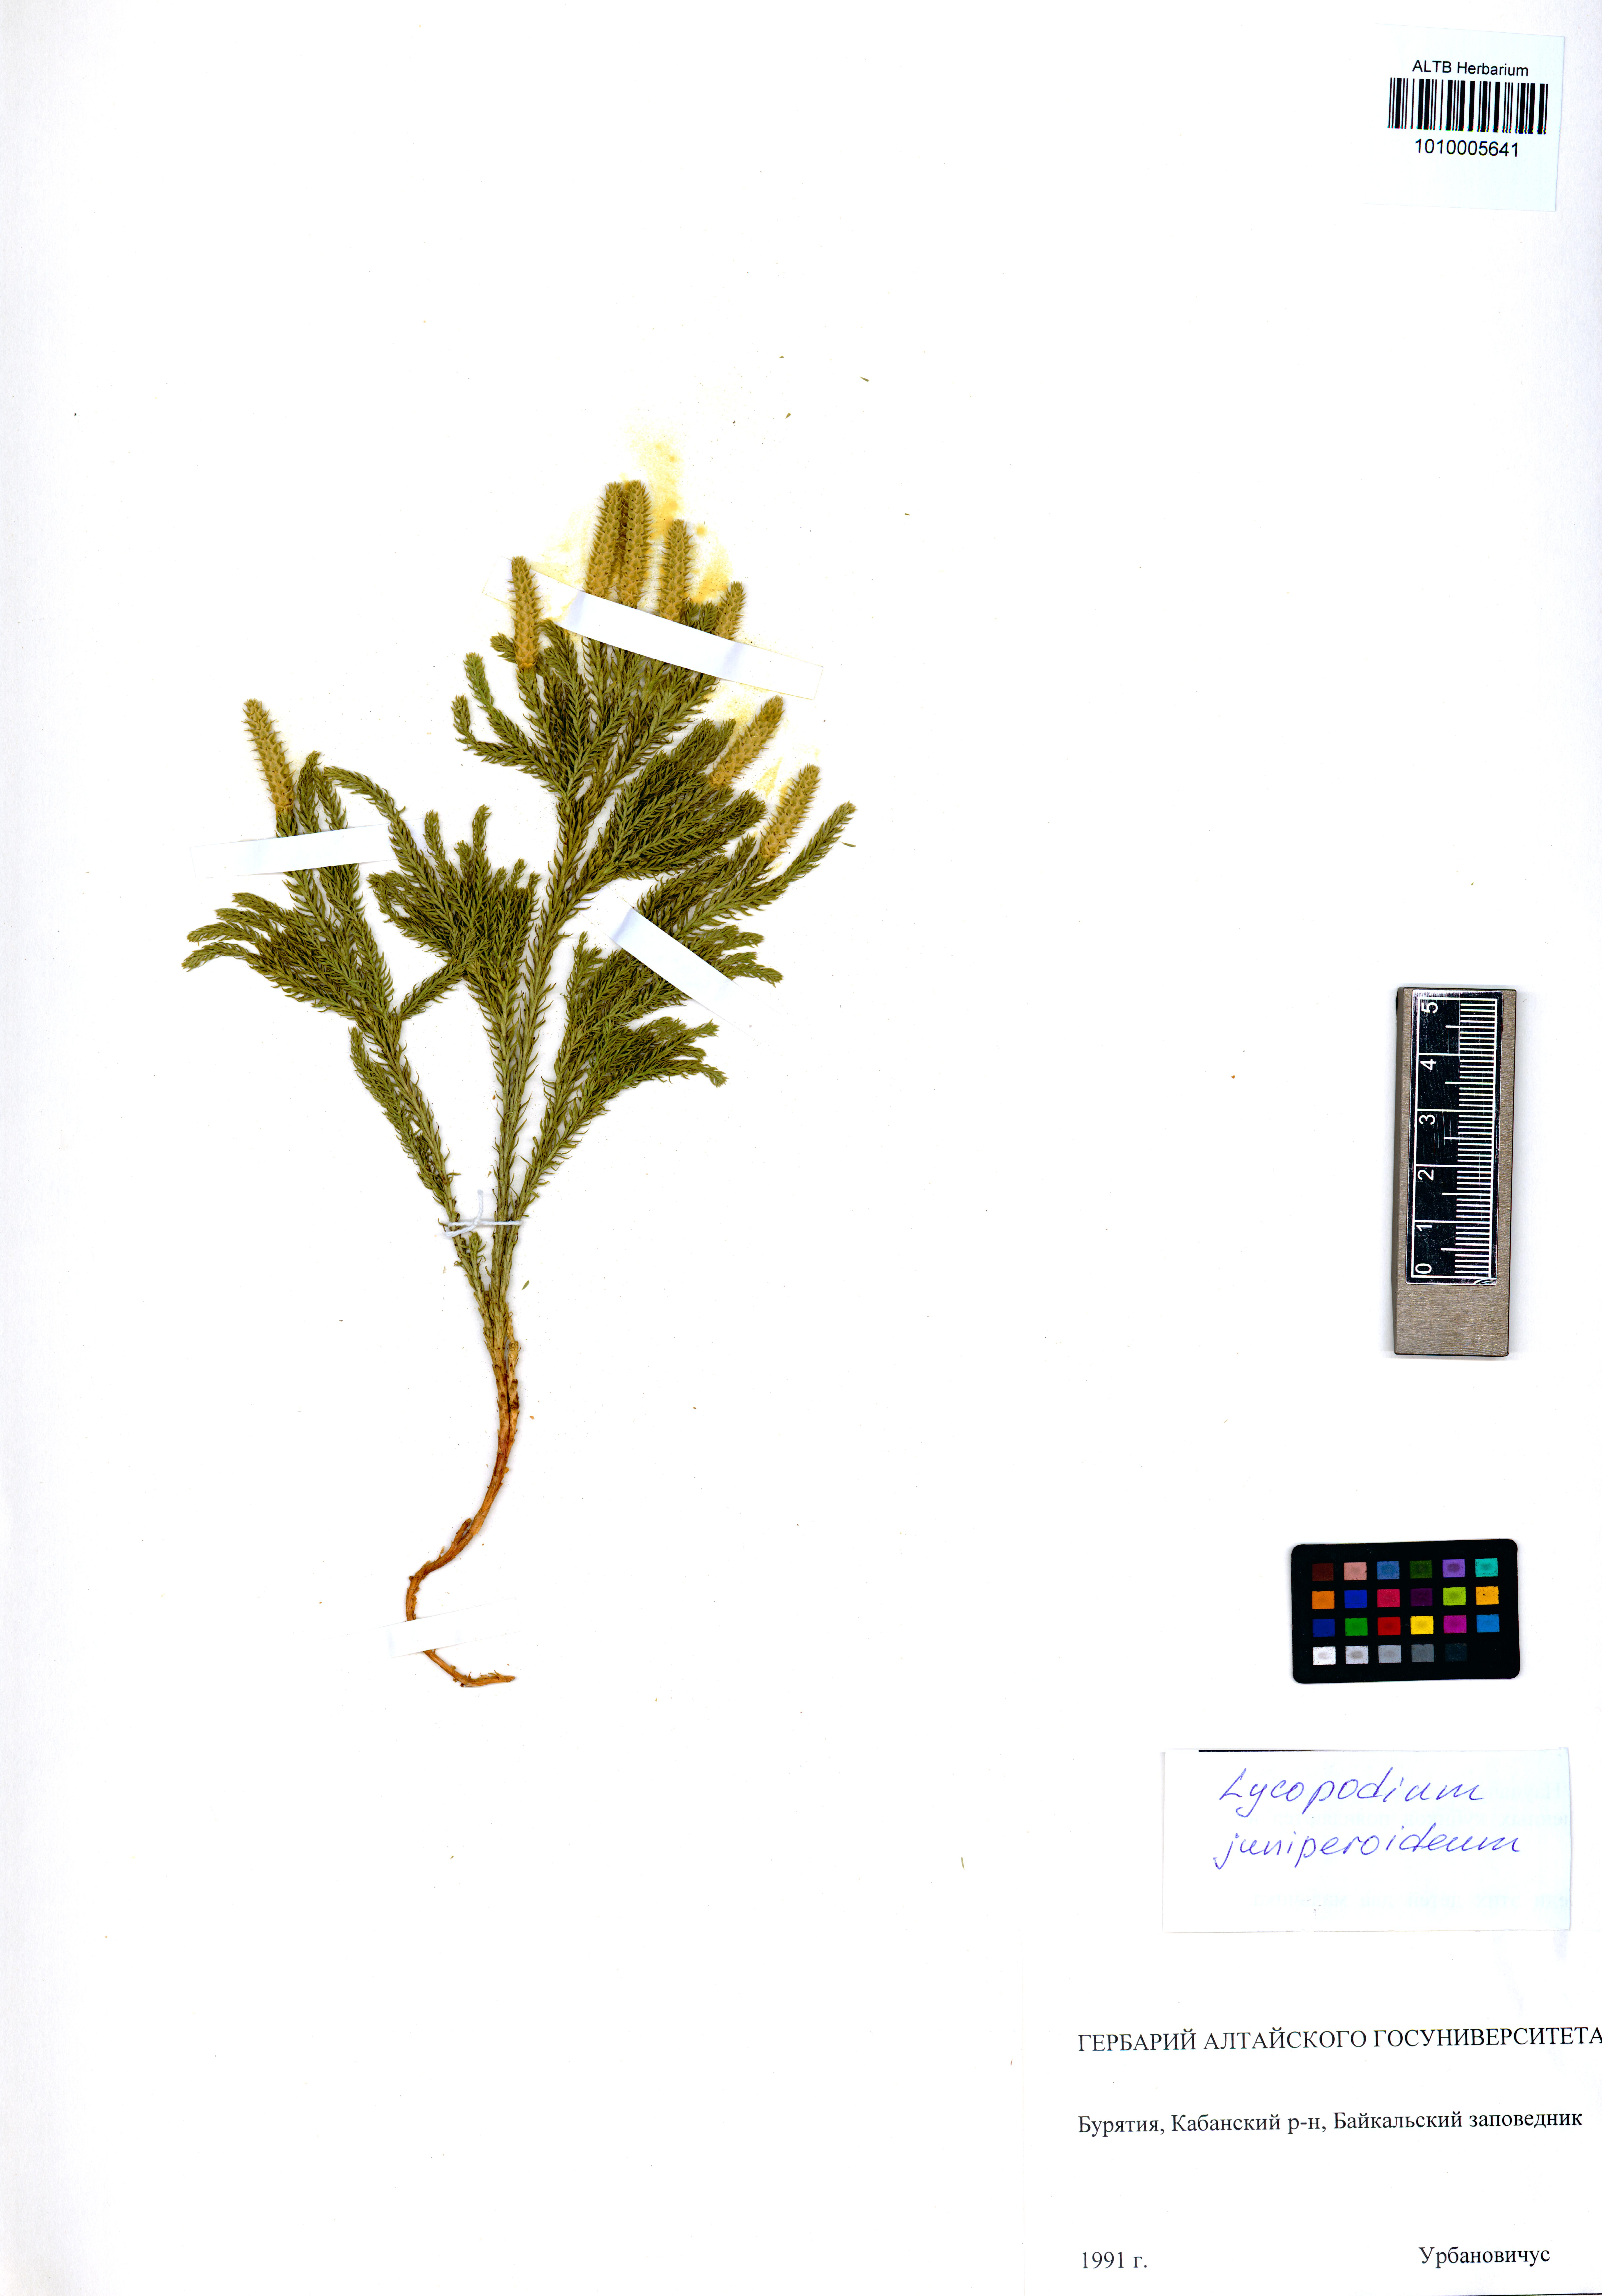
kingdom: Plantae
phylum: Tracheophyta
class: Lycopodiopsida
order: Lycopodiales
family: Lycopodiaceae
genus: Dendrolycopodium
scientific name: Dendrolycopodium juniperoideum
